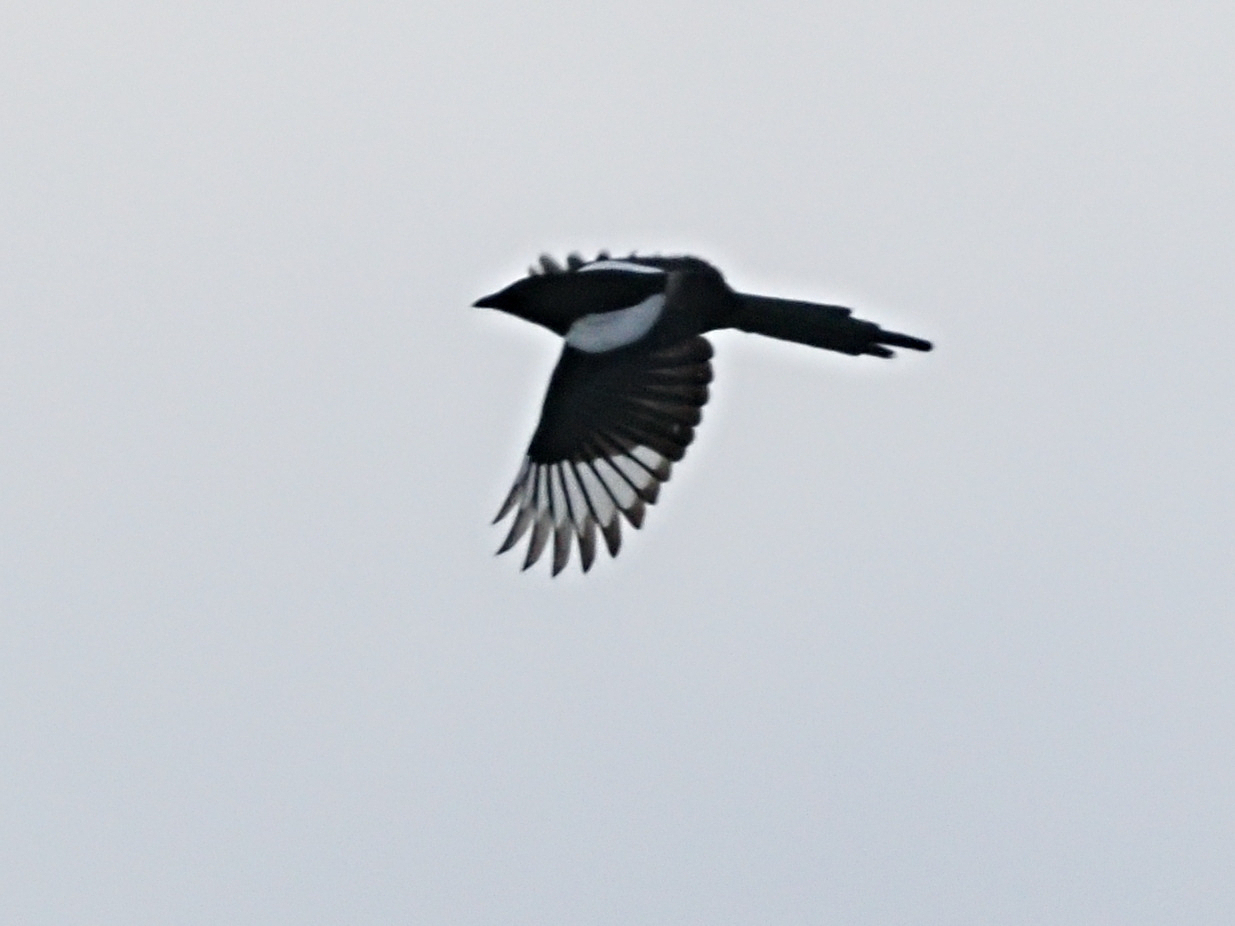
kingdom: Animalia
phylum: Chordata
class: Aves
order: Passeriformes
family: Corvidae
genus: Pica
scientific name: Pica pica
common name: Husskade
